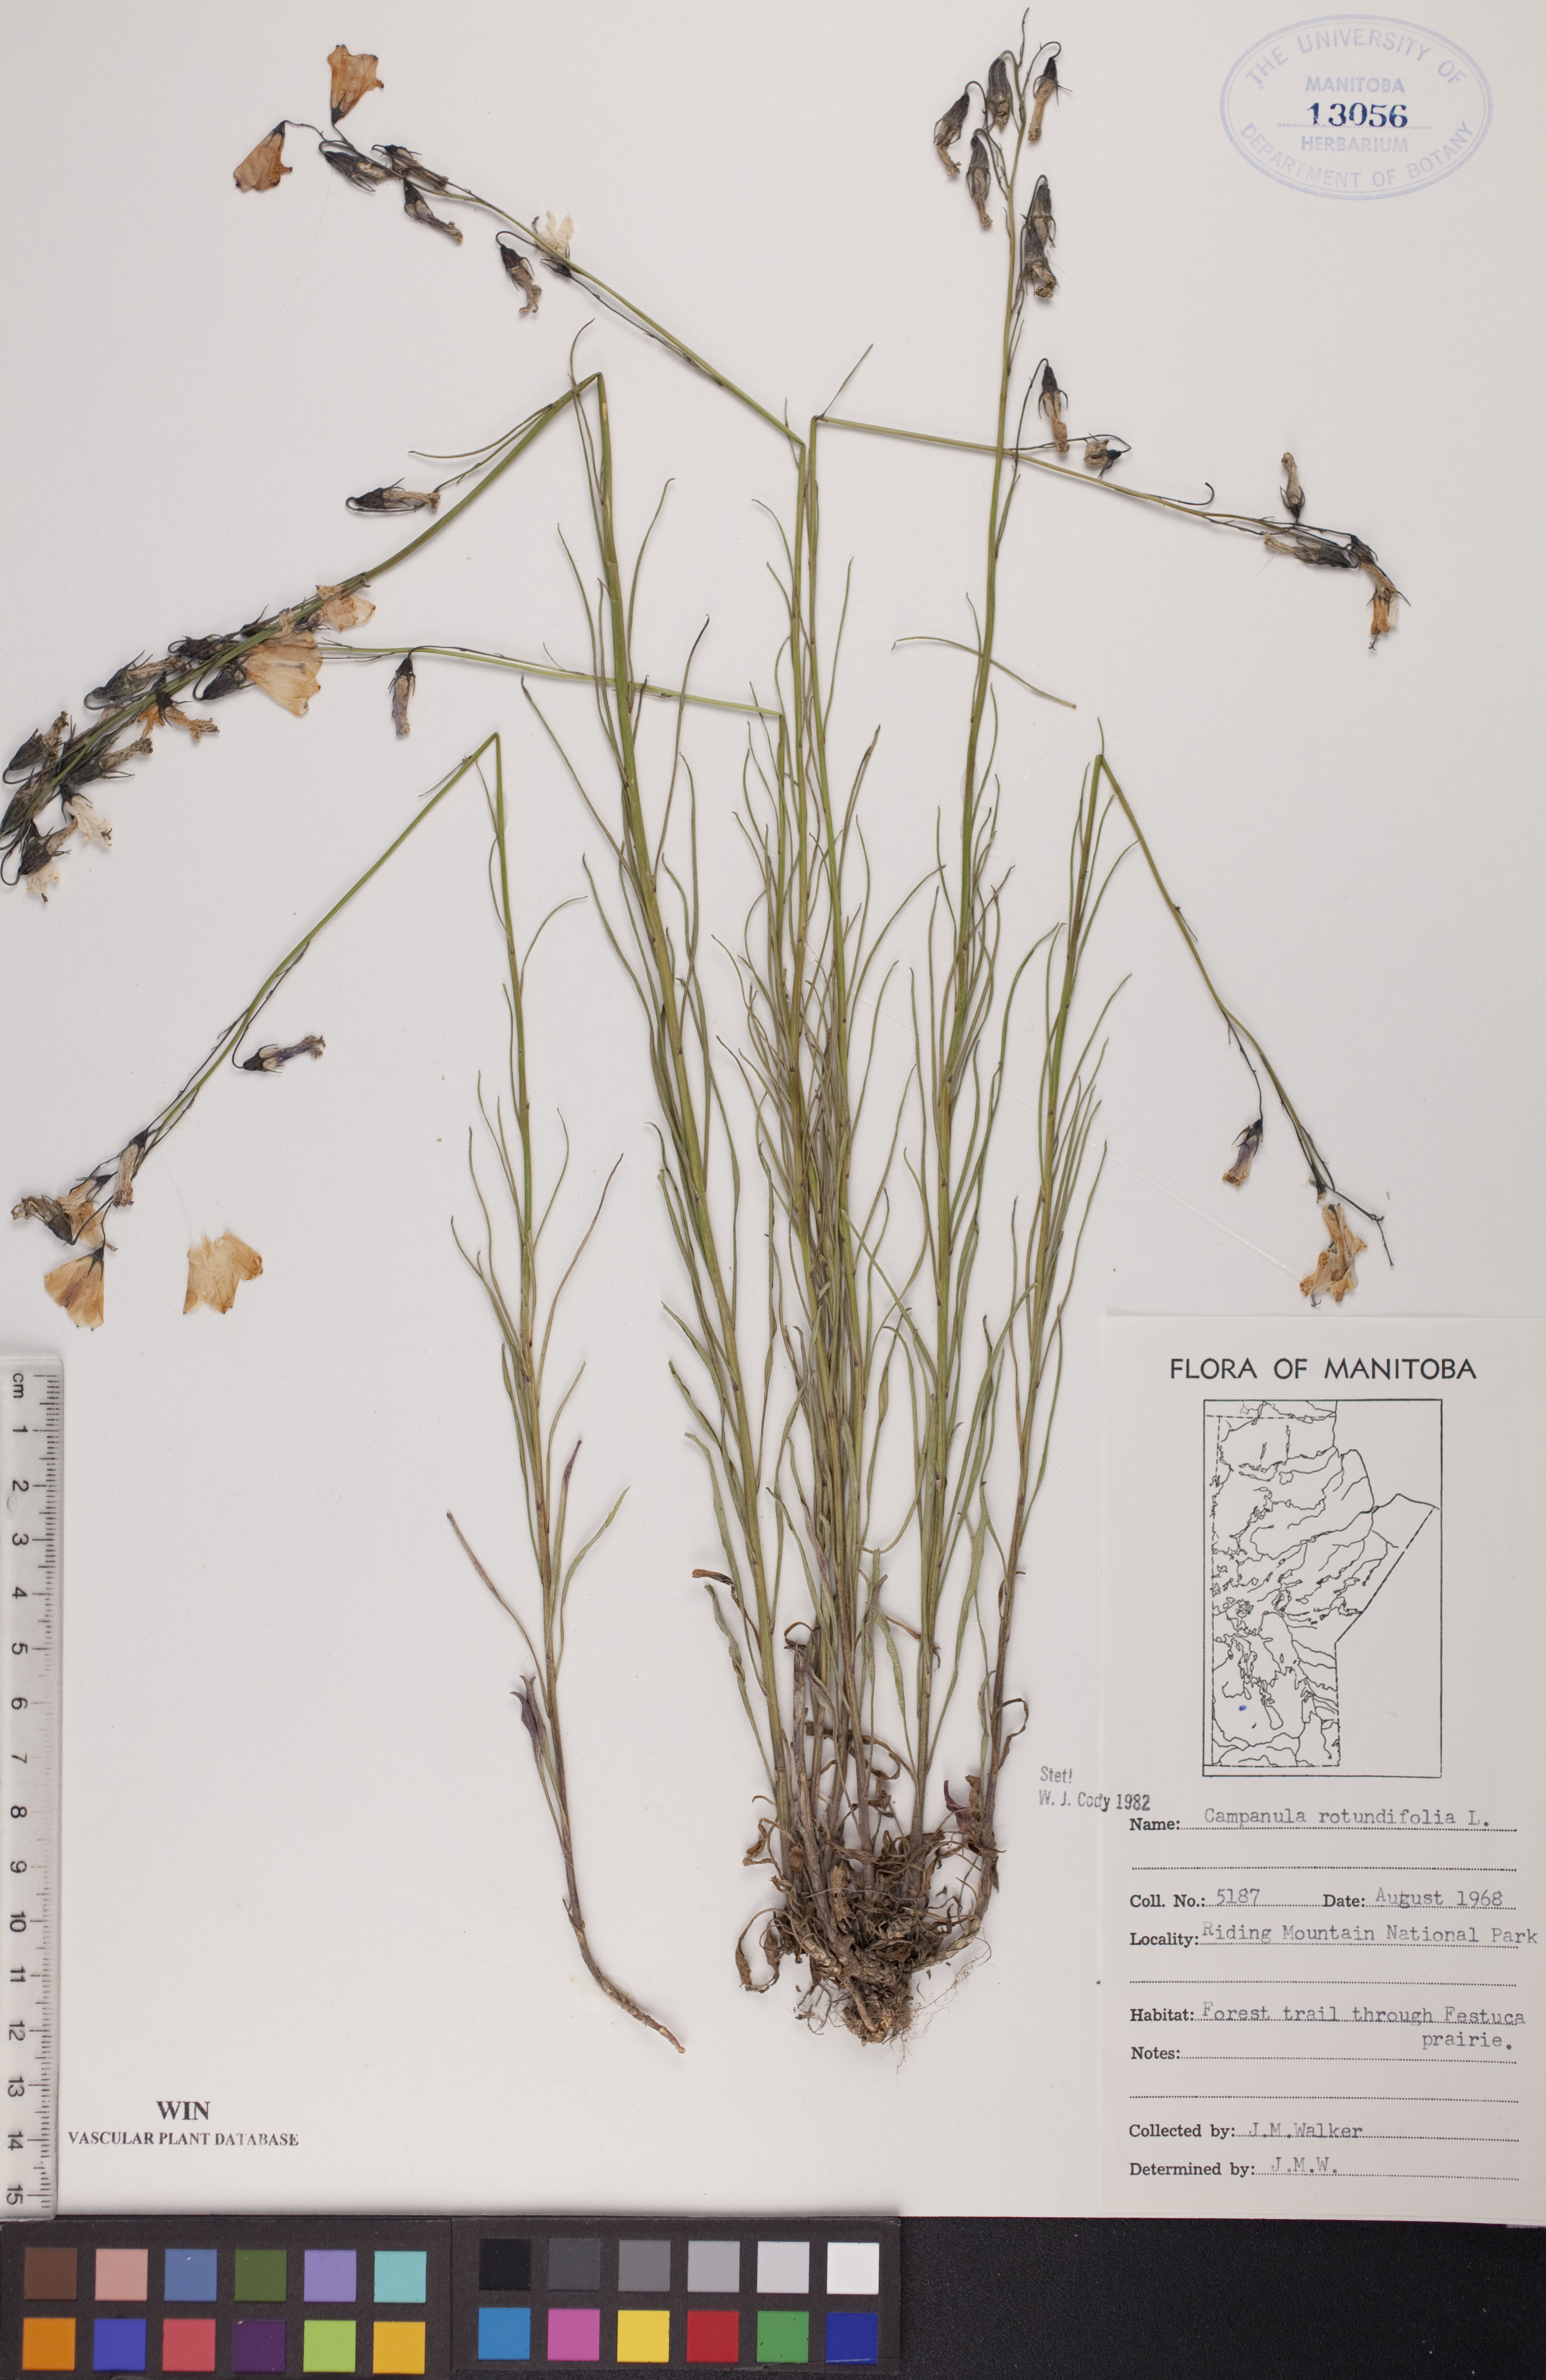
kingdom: Plantae
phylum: Tracheophyta
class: Magnoliopsida
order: Asterales
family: Campanulaceae
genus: Campanula
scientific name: Campanula rotundifolia
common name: Harebell
